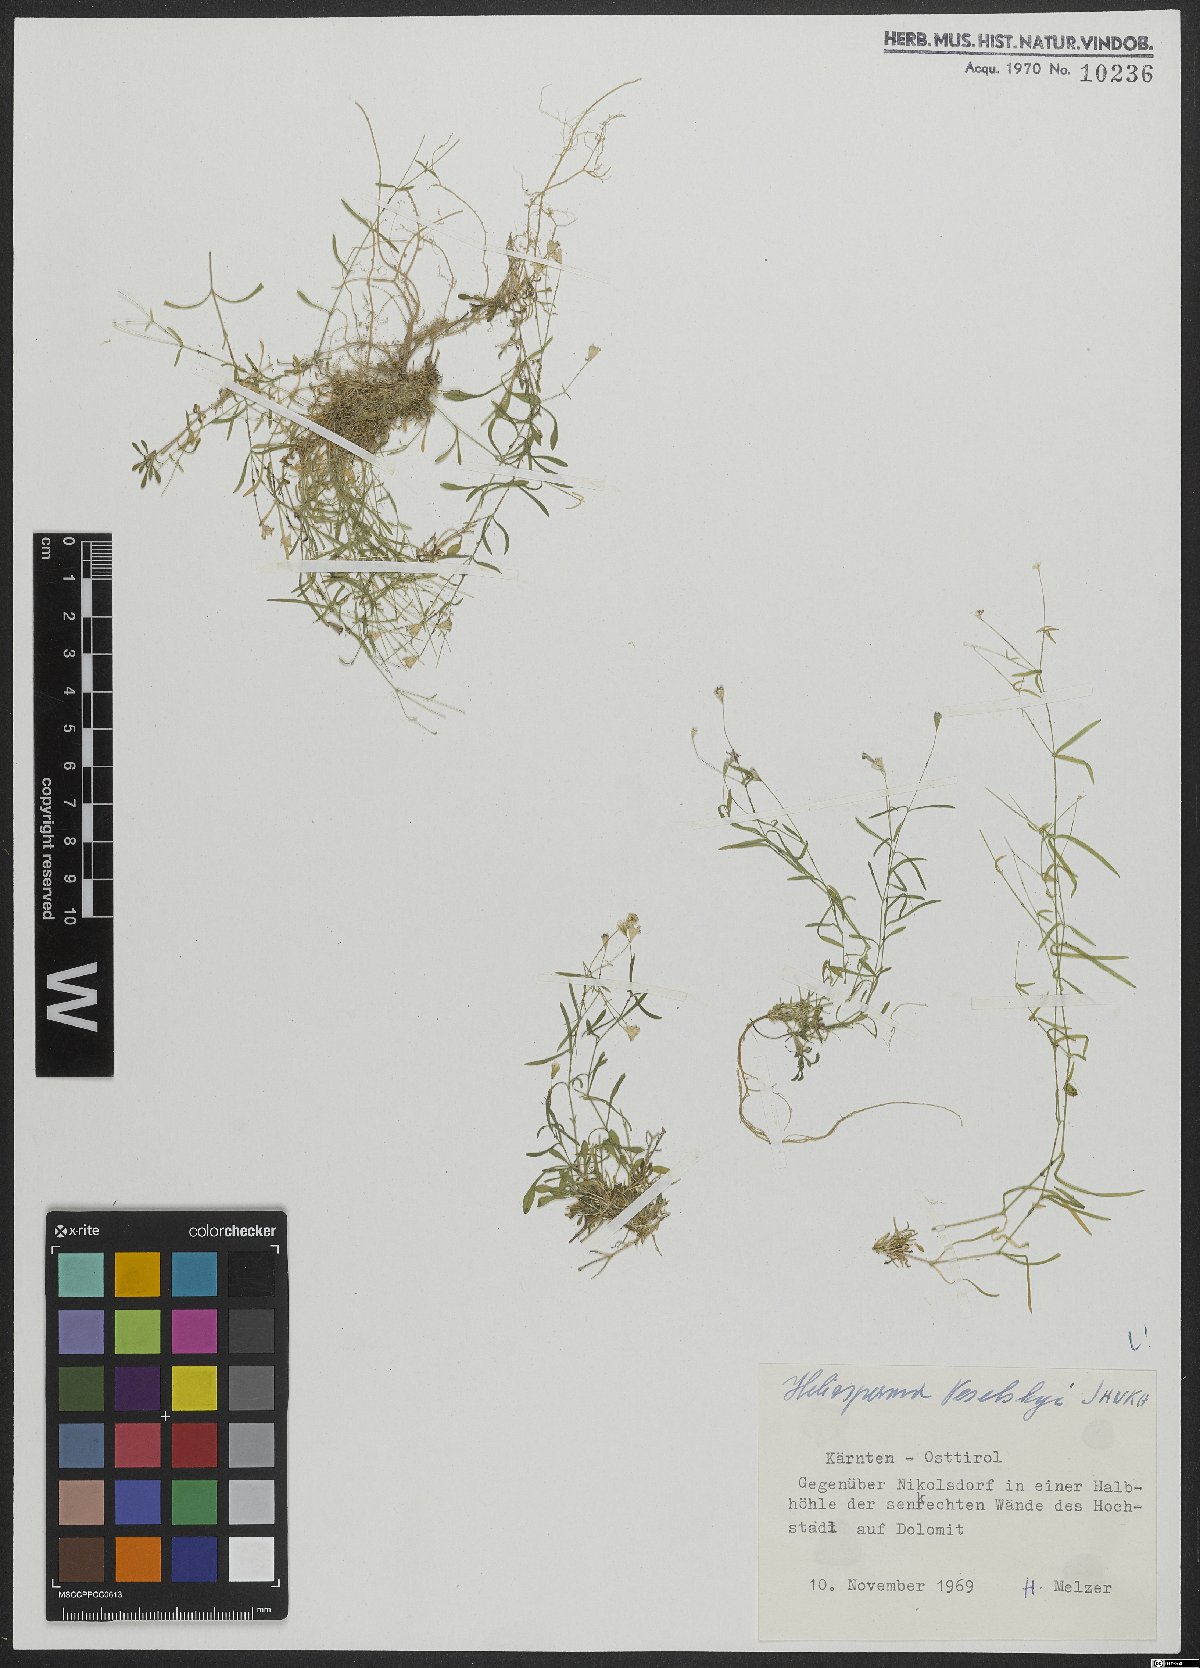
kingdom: Plantae
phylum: Tracheophyta
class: Magnoliopsida
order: Caryophyllales
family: Caryophyllaceae
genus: Heliosperma
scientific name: Heliosperma veselskyi
